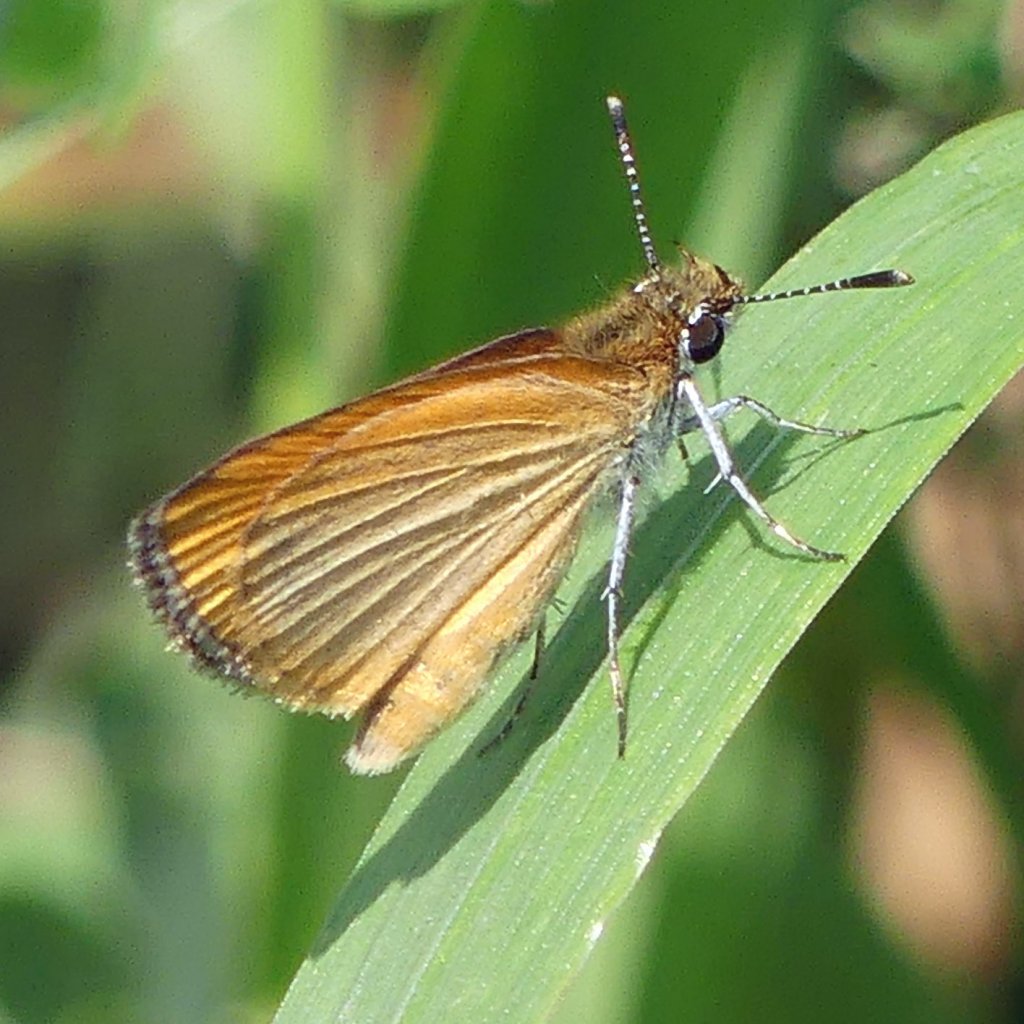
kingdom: Animalia
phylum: Arthropoda
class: Insecta
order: Lepidoptera
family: Hesperiidae
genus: Ancyloxypha
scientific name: Ancyloxypha numitor
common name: Least Skipper
